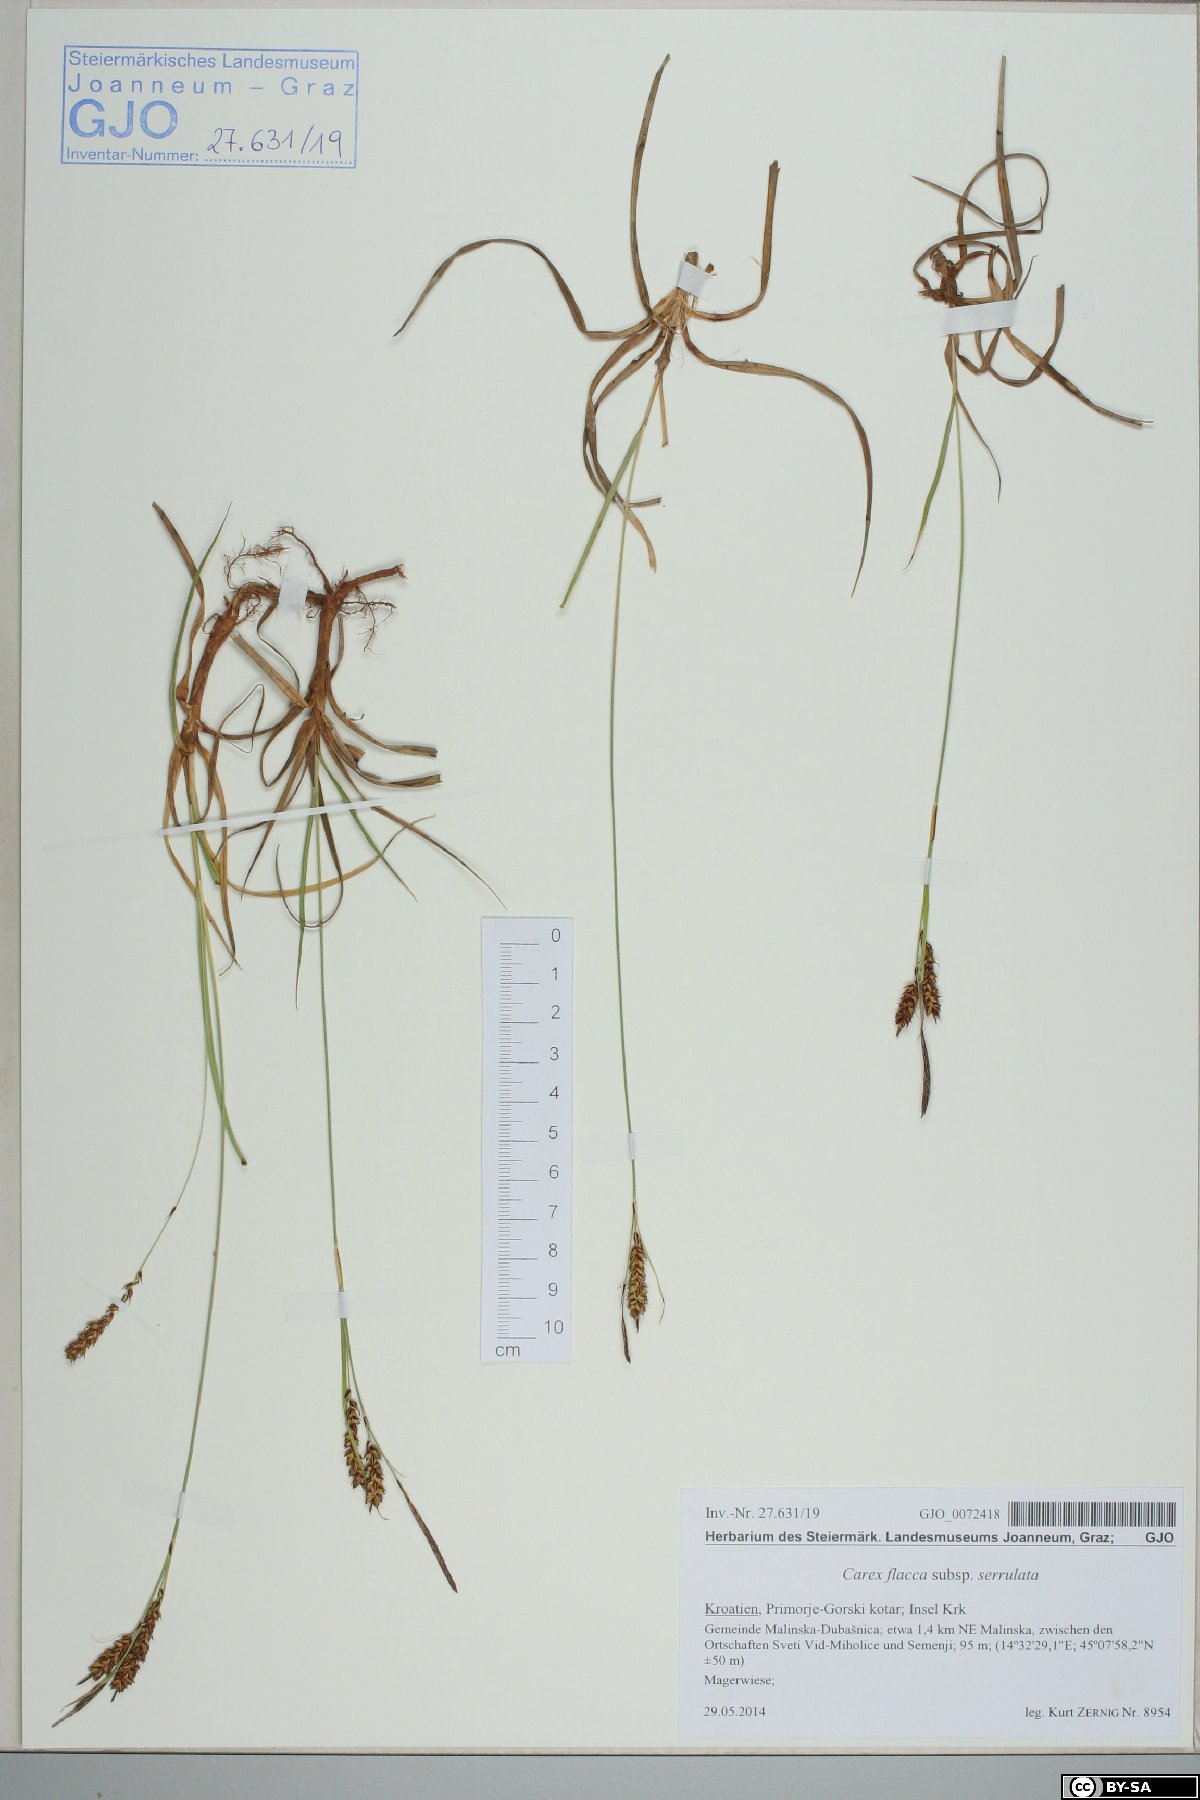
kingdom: Plantae
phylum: Tracheophyta
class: Liliopsida
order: Poales
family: Cyperaceae
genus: Carex
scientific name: Carex flacca
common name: Glaucous sedge
